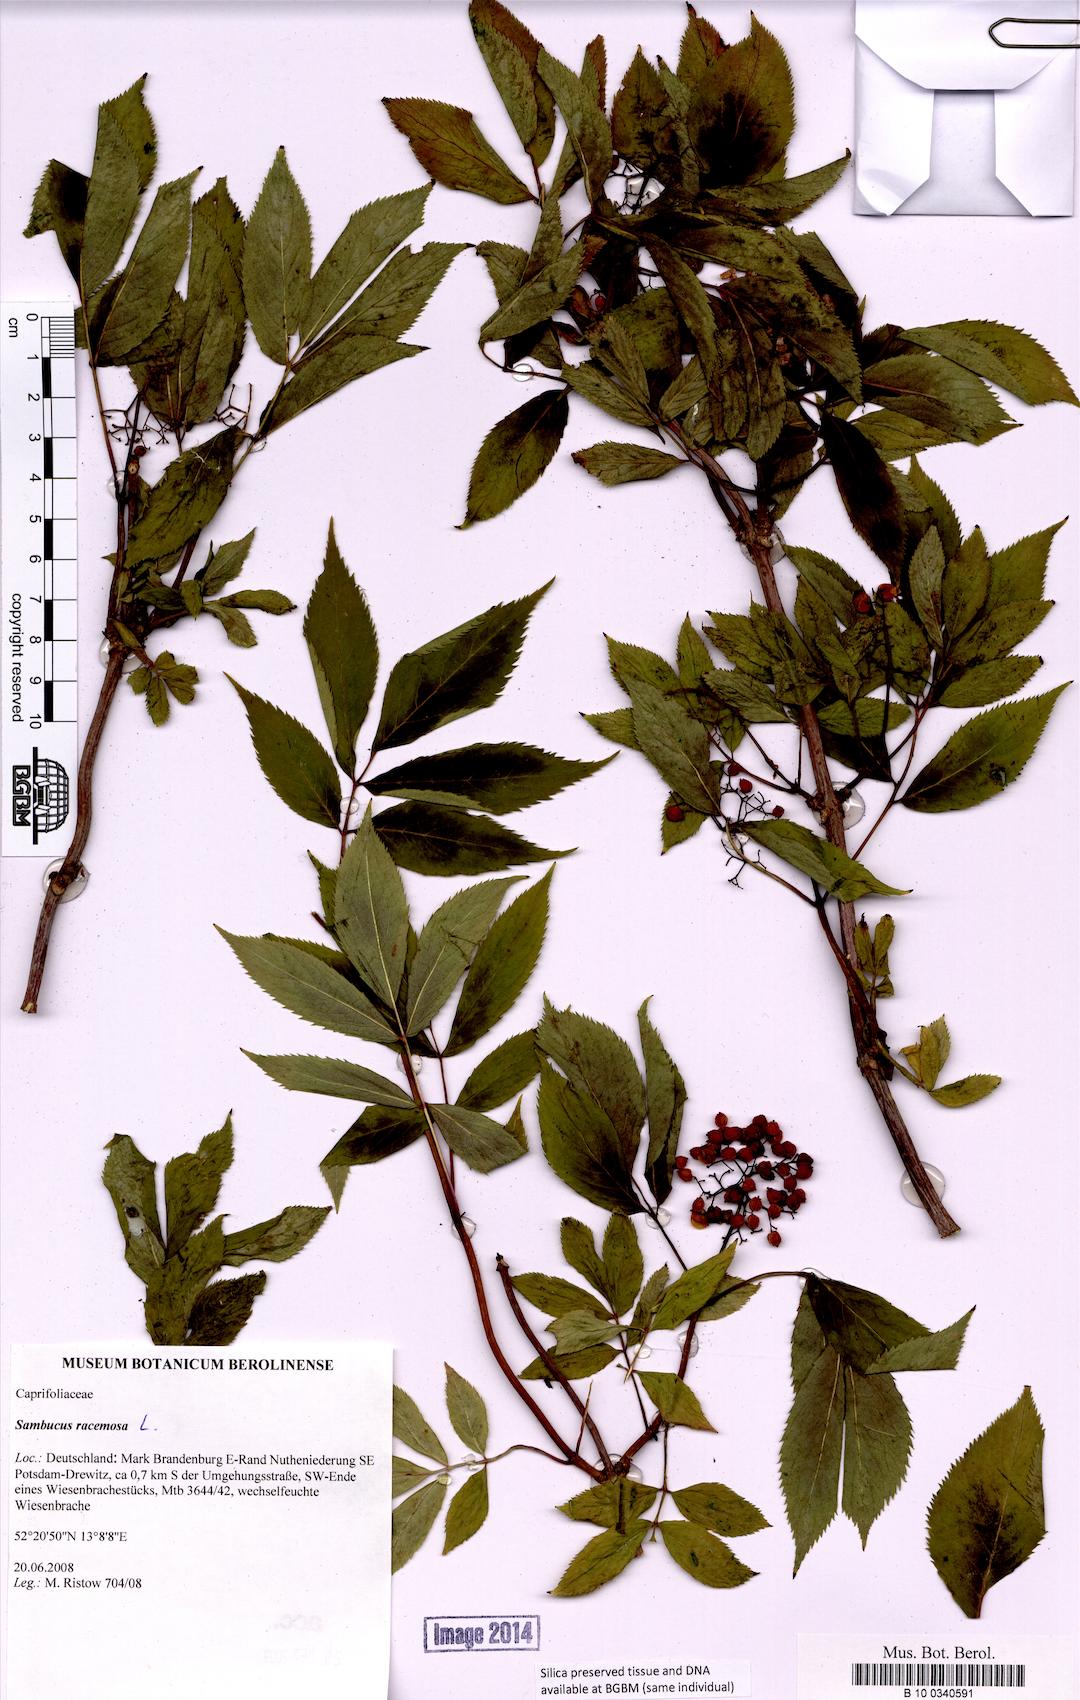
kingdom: Plantae
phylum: Tracheophyta
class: Magnoliopsida
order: Dipsacales
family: Viburnaceae
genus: Sambucus
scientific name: Sambucus racemosa
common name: Red-berried elder
